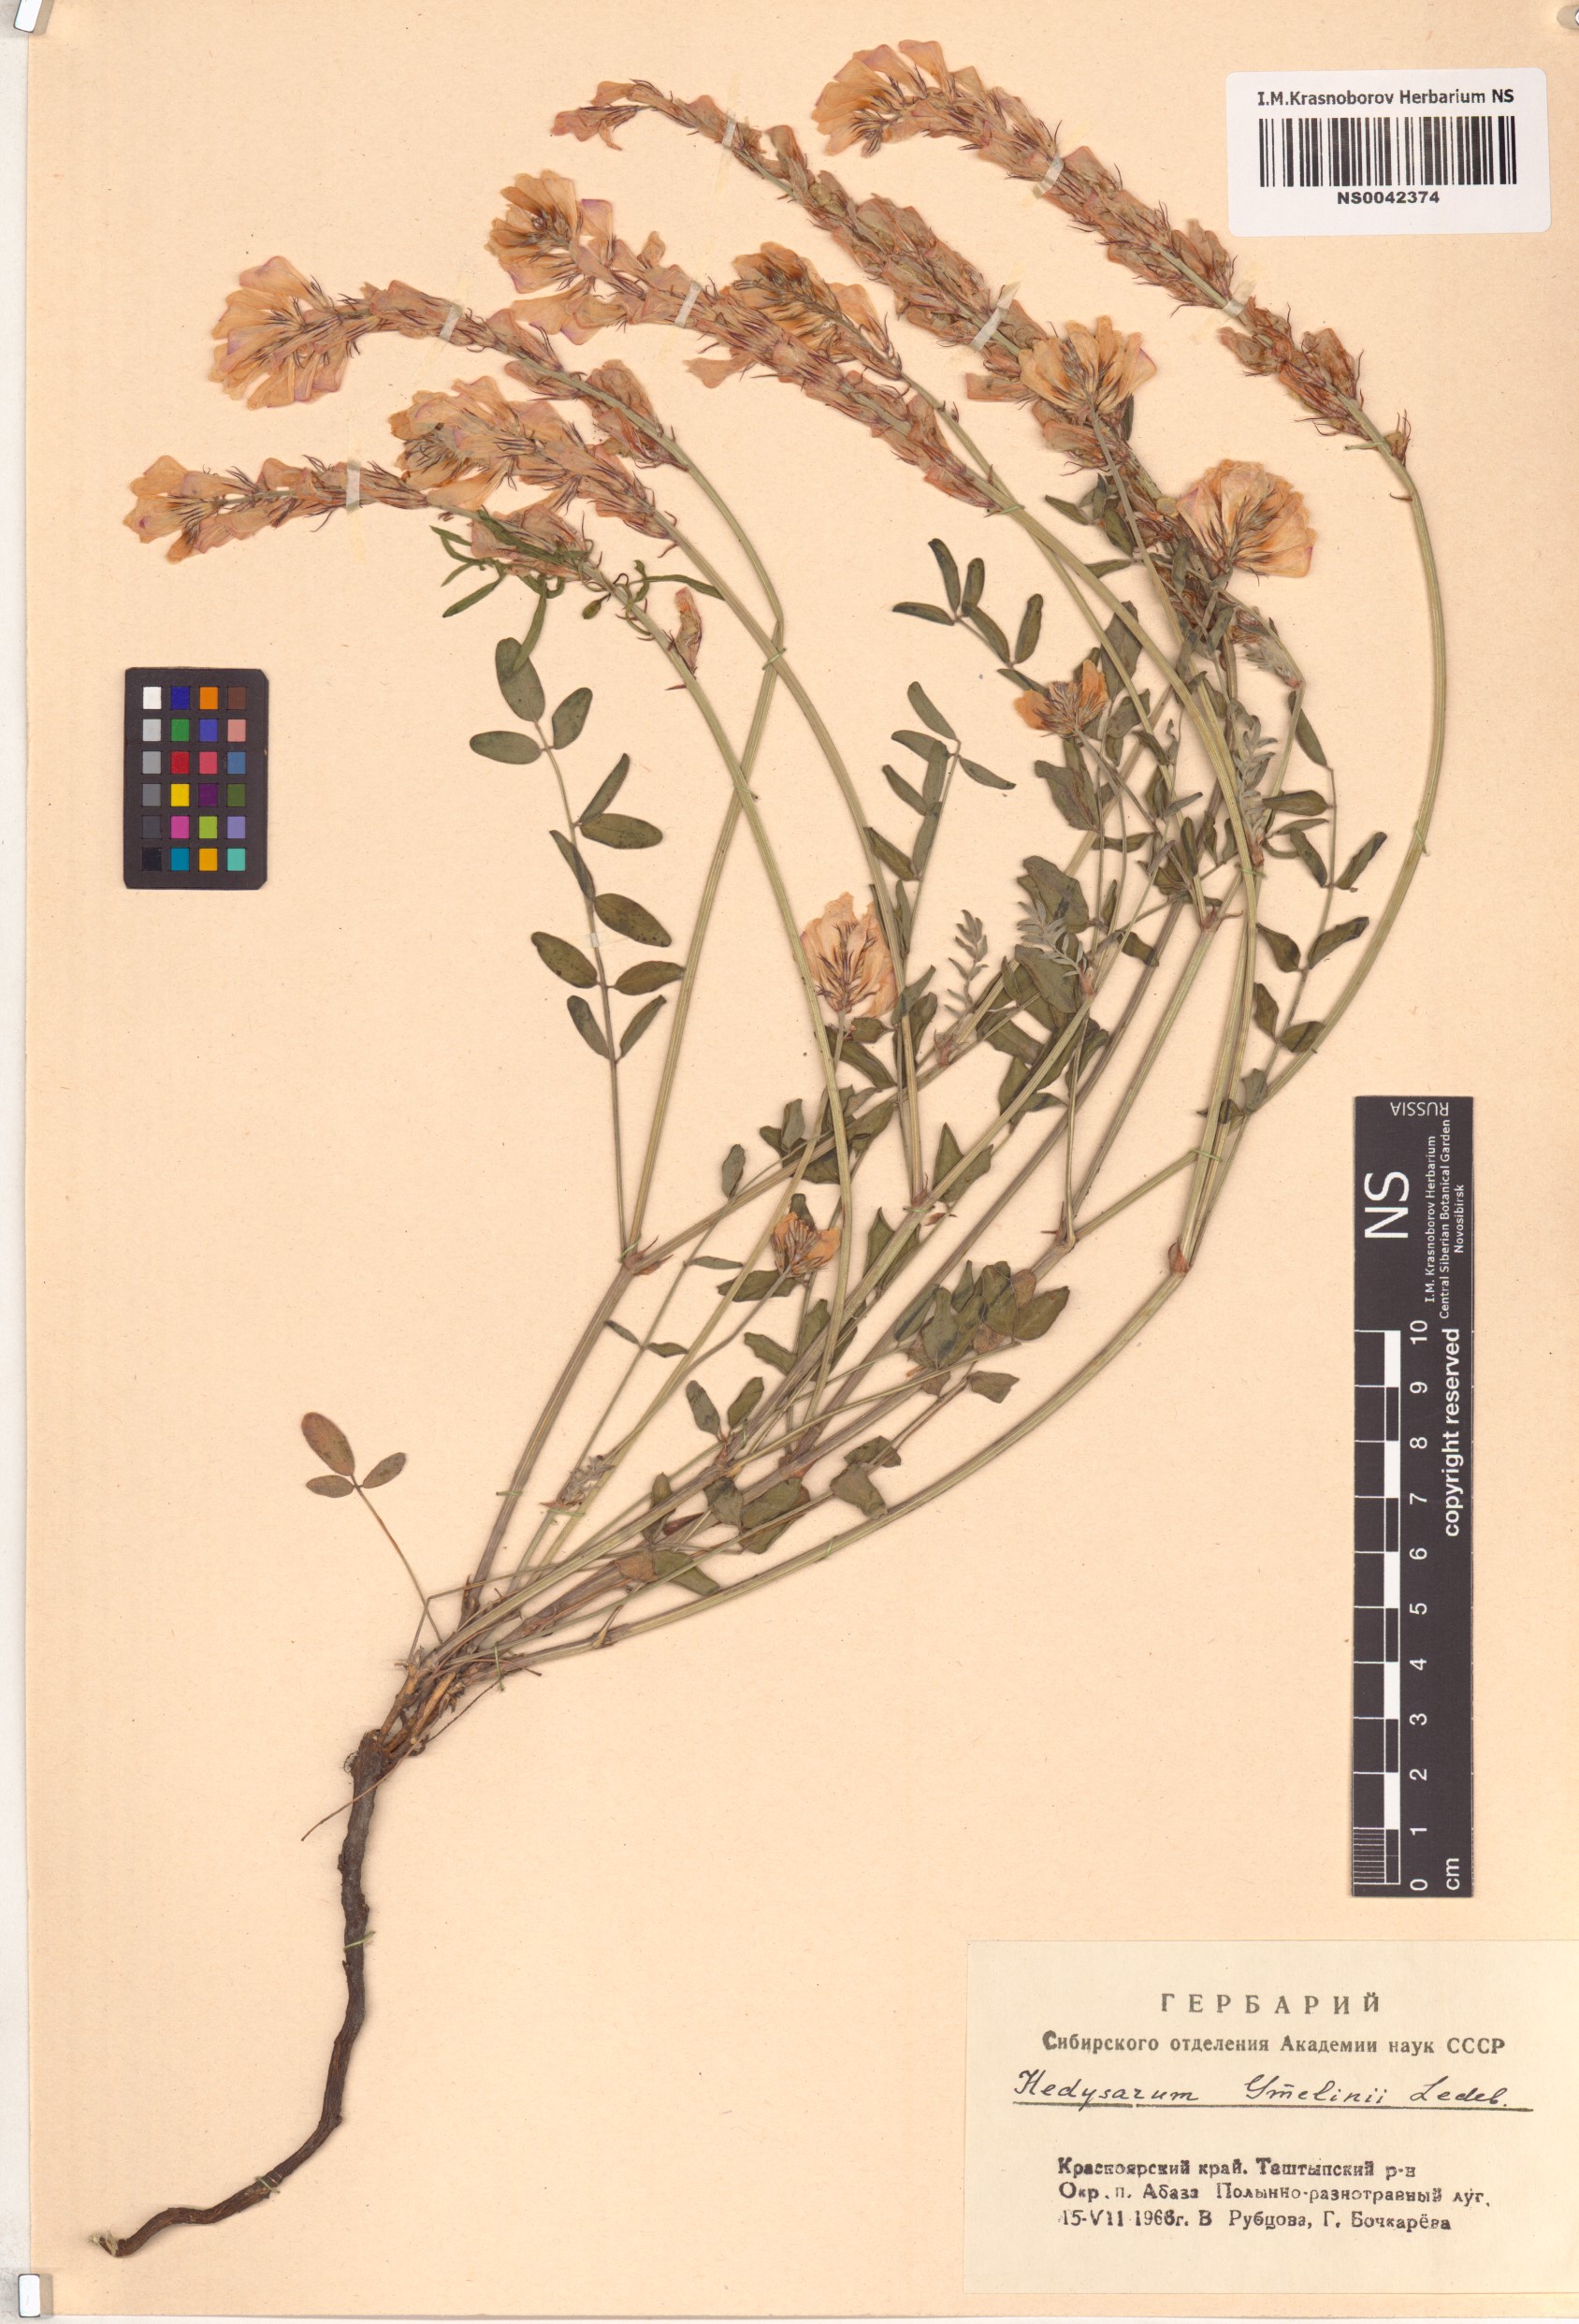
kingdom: Plantae
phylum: Tracheophyta
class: Magnoliopsida
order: Fabales
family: Fabaceae
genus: Hedysarum
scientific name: Hedysarum gmelinii
